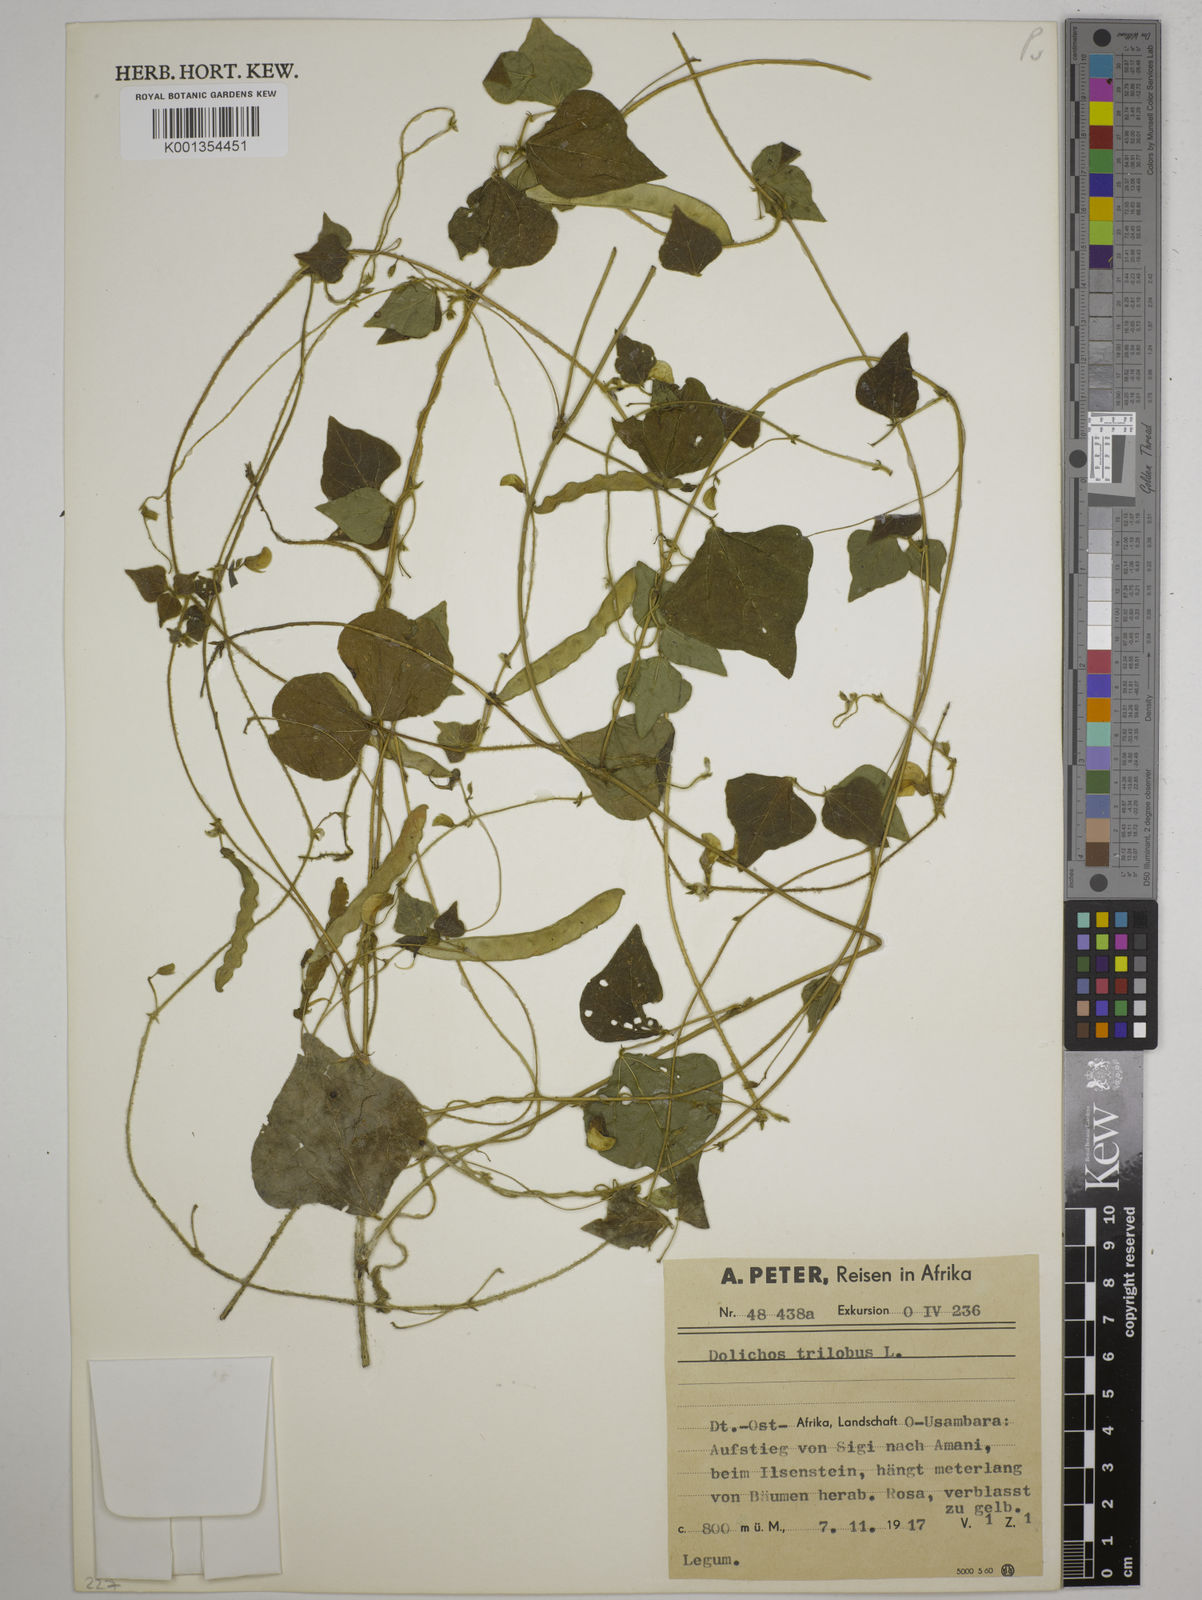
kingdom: Plantae
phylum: Tracheophyta
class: Magnoliopsida
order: Fabales
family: Fabaceae
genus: Dolichos
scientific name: Dolichos
